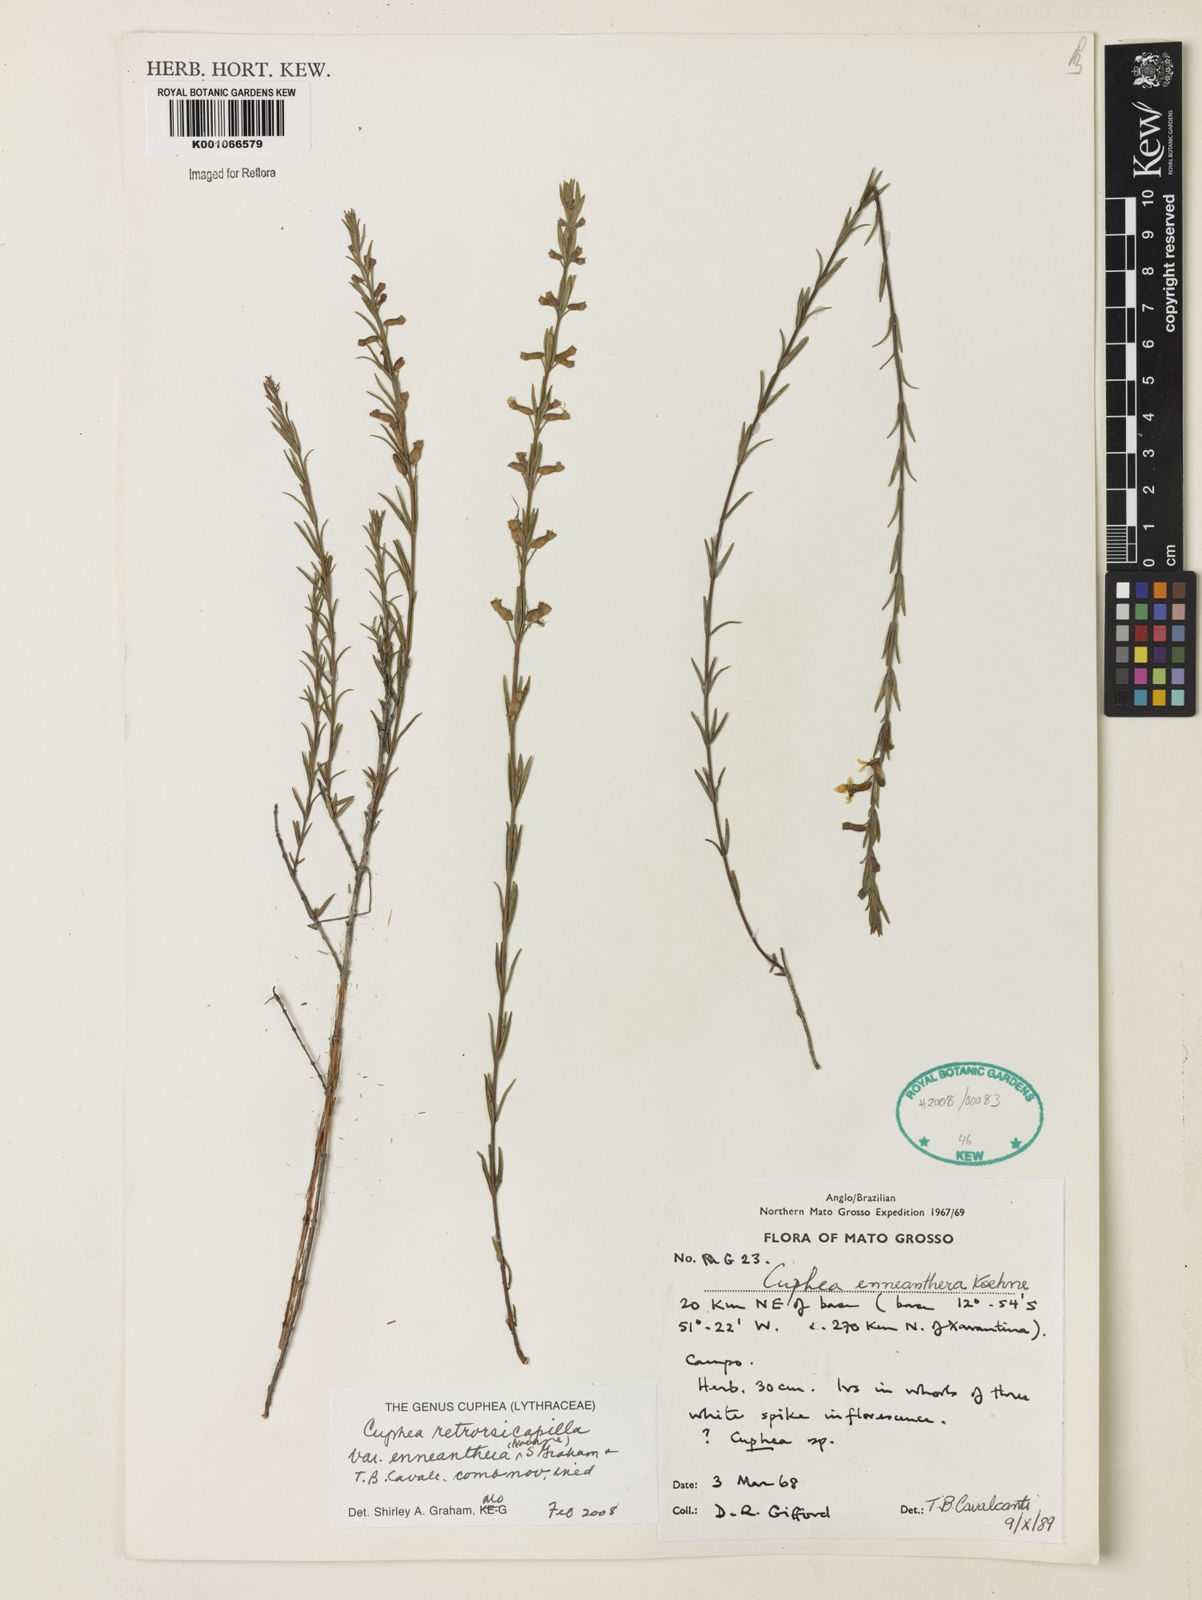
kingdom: Plantae
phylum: Tracheophyta
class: Magnoliopsida
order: Myrtales
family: Lythraceae
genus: Cuphea
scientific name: Cuphea retrorsicapilla
